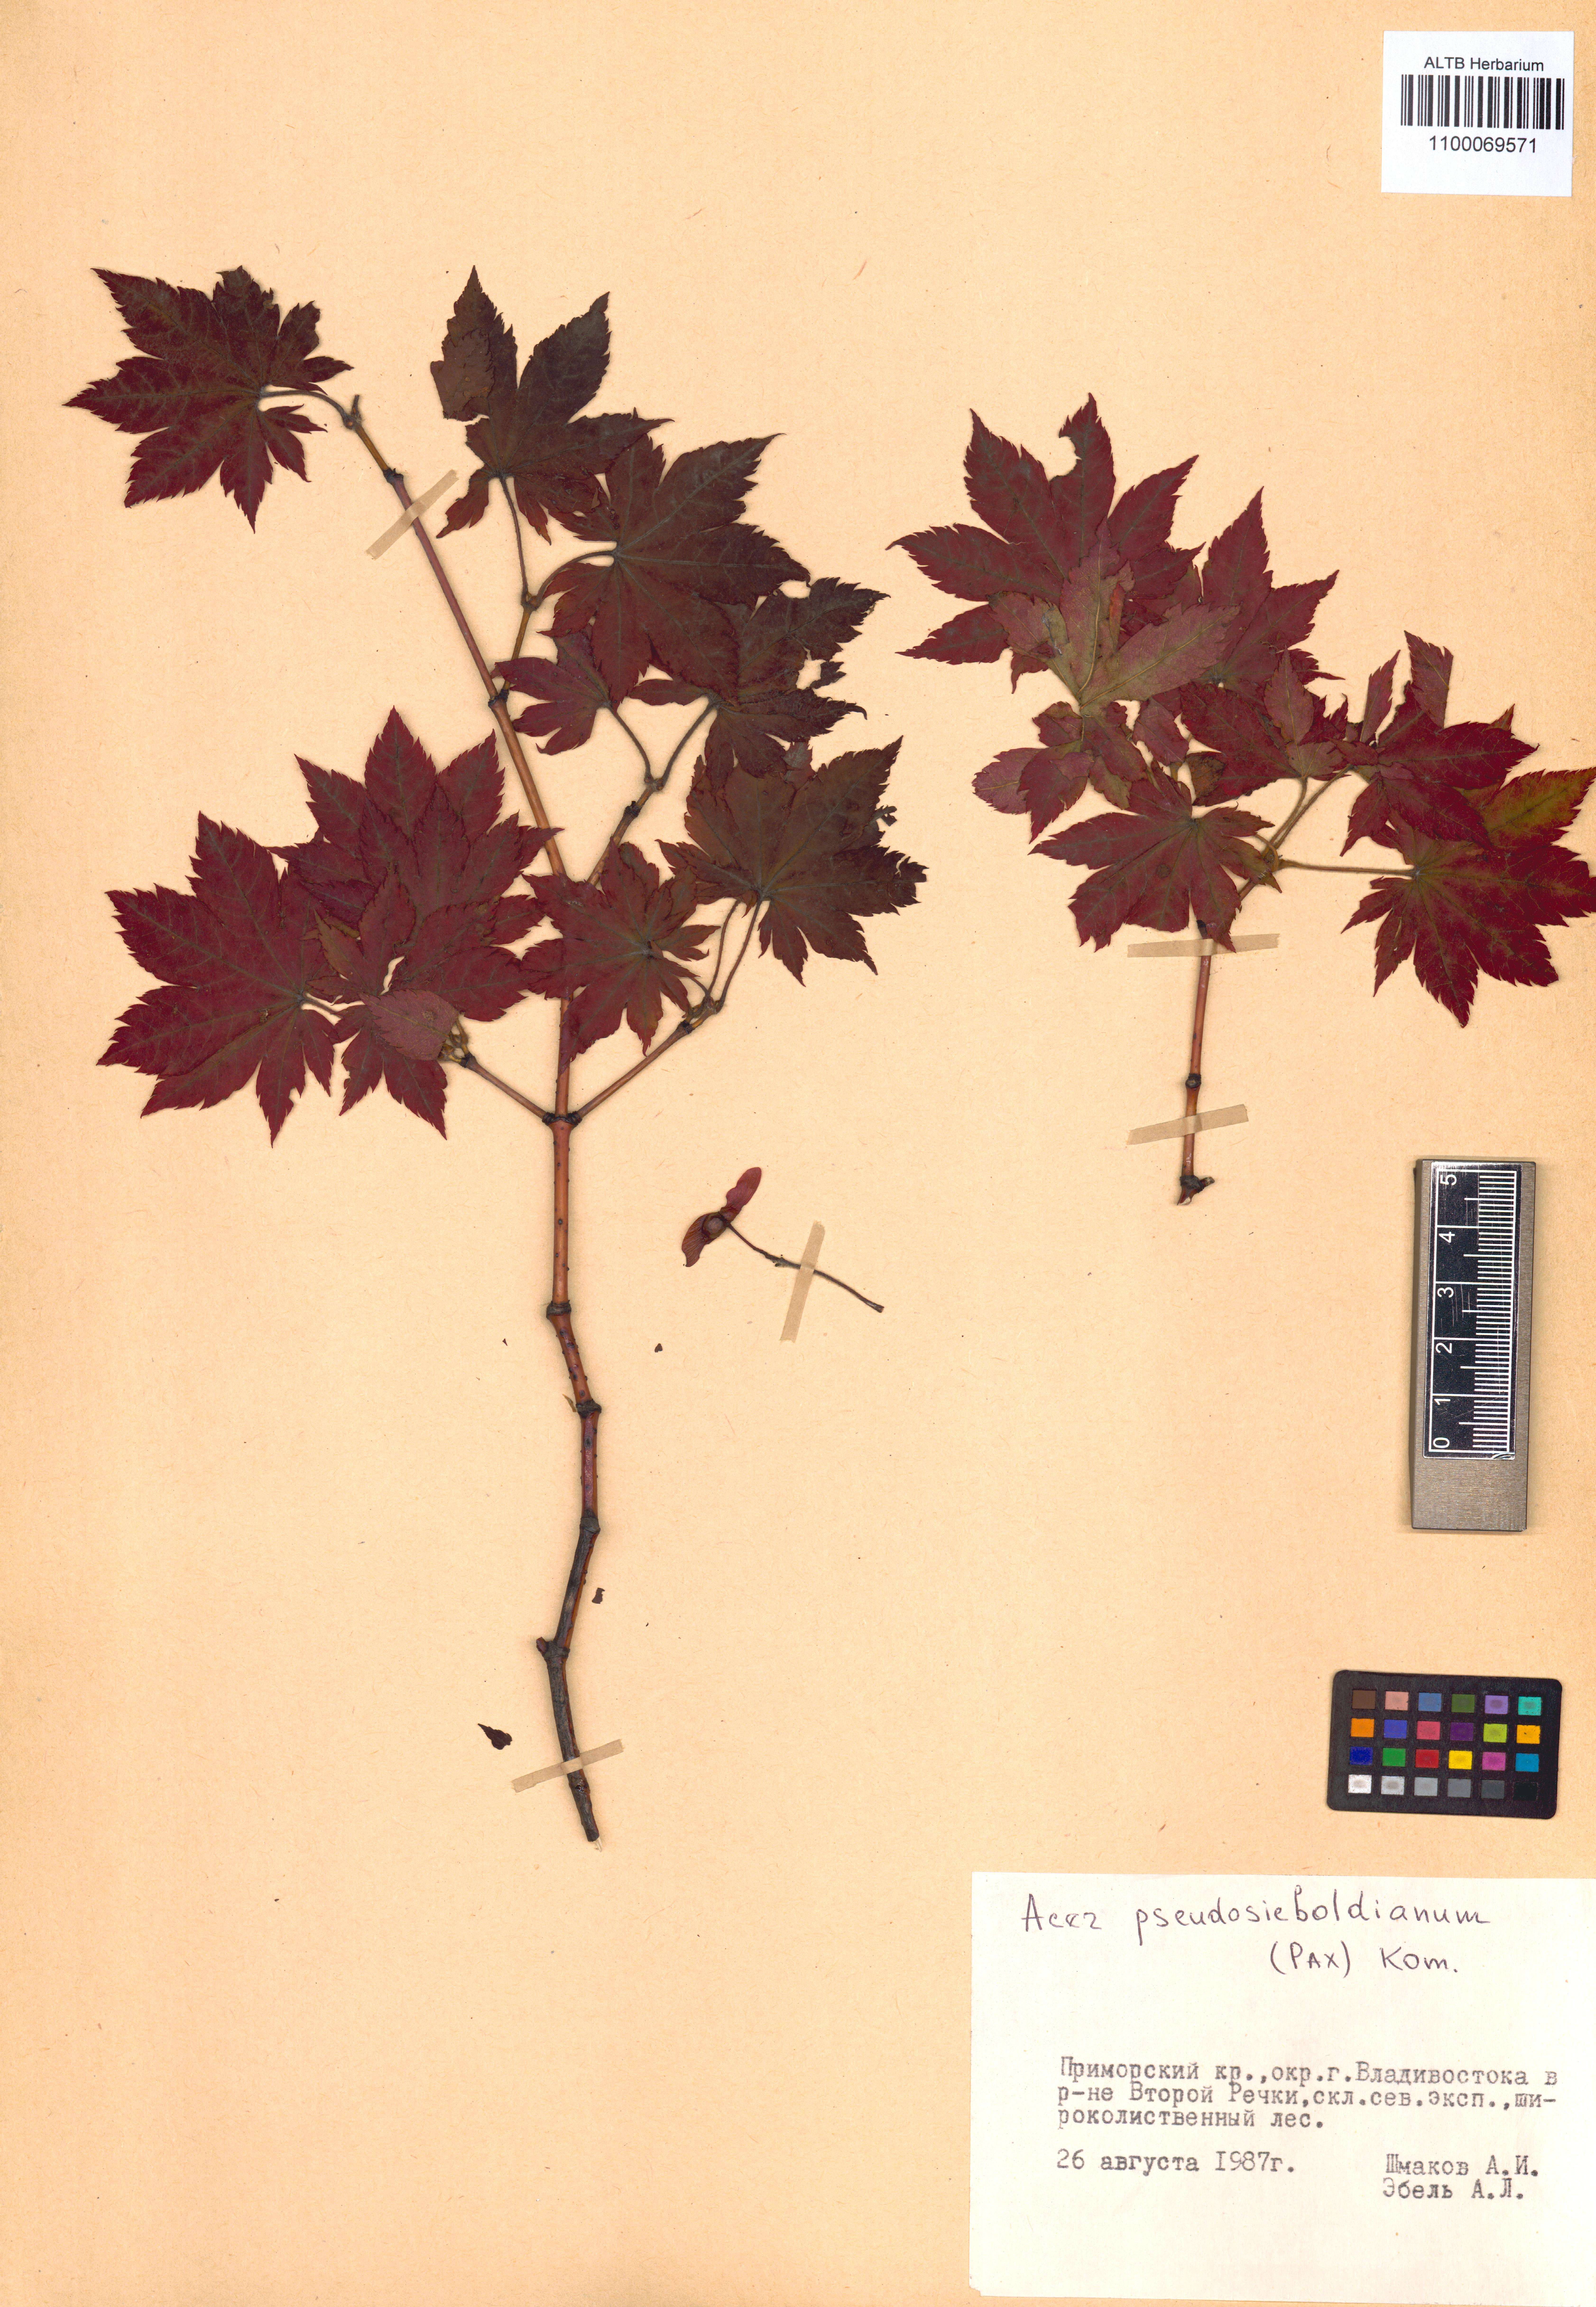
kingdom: Plantae
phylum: Tracheophyta
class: Magnoliopsida
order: Sapindales
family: Sapindaceae
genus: Acer
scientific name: Acer pseudosieboldianum
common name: Korean maple
